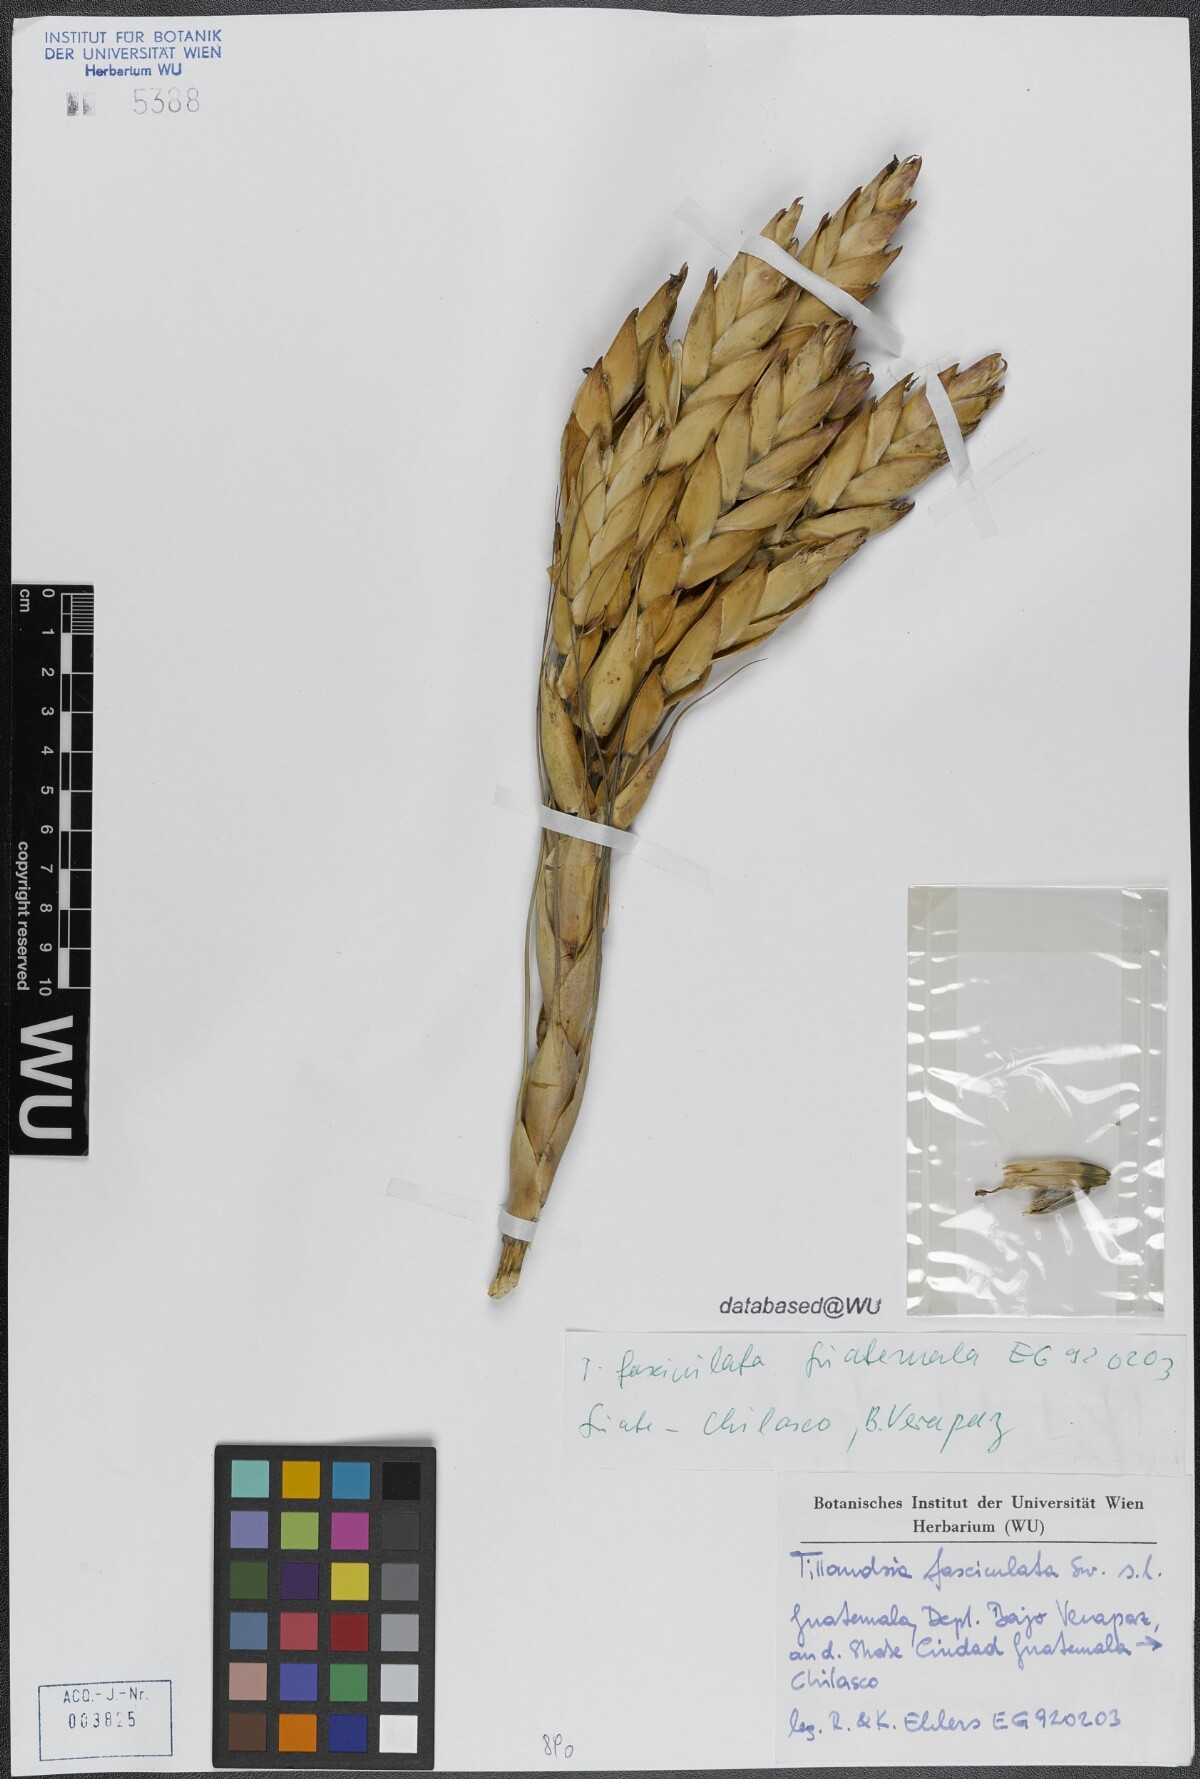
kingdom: Plantae
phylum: Tracheophyta
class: Liliopsida
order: Poales
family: Bromeliaceae
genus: Tillandsia
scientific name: Tillandsia fasciculata
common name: Giant airplant
